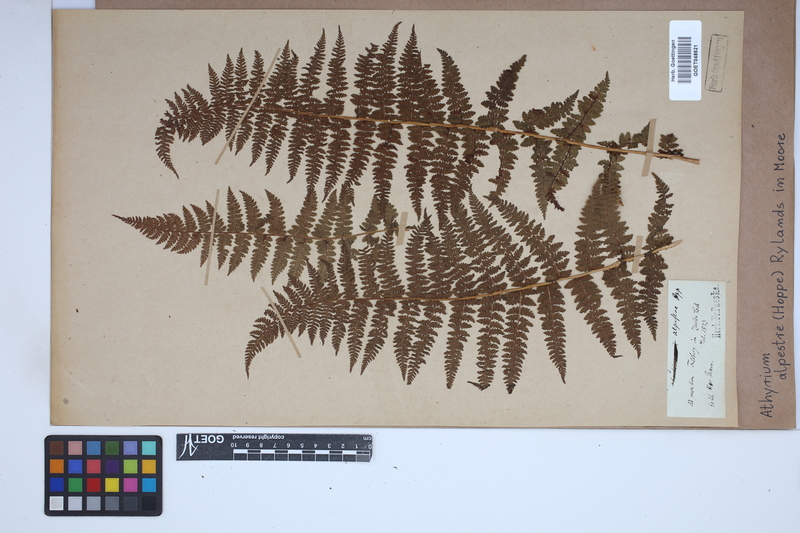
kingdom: Plantae
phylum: Tracheophyta
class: Polypodiopsida
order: Polypodiales
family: Athyriaceae
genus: Pseudathyrium
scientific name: Pseudathyrium alpestre
